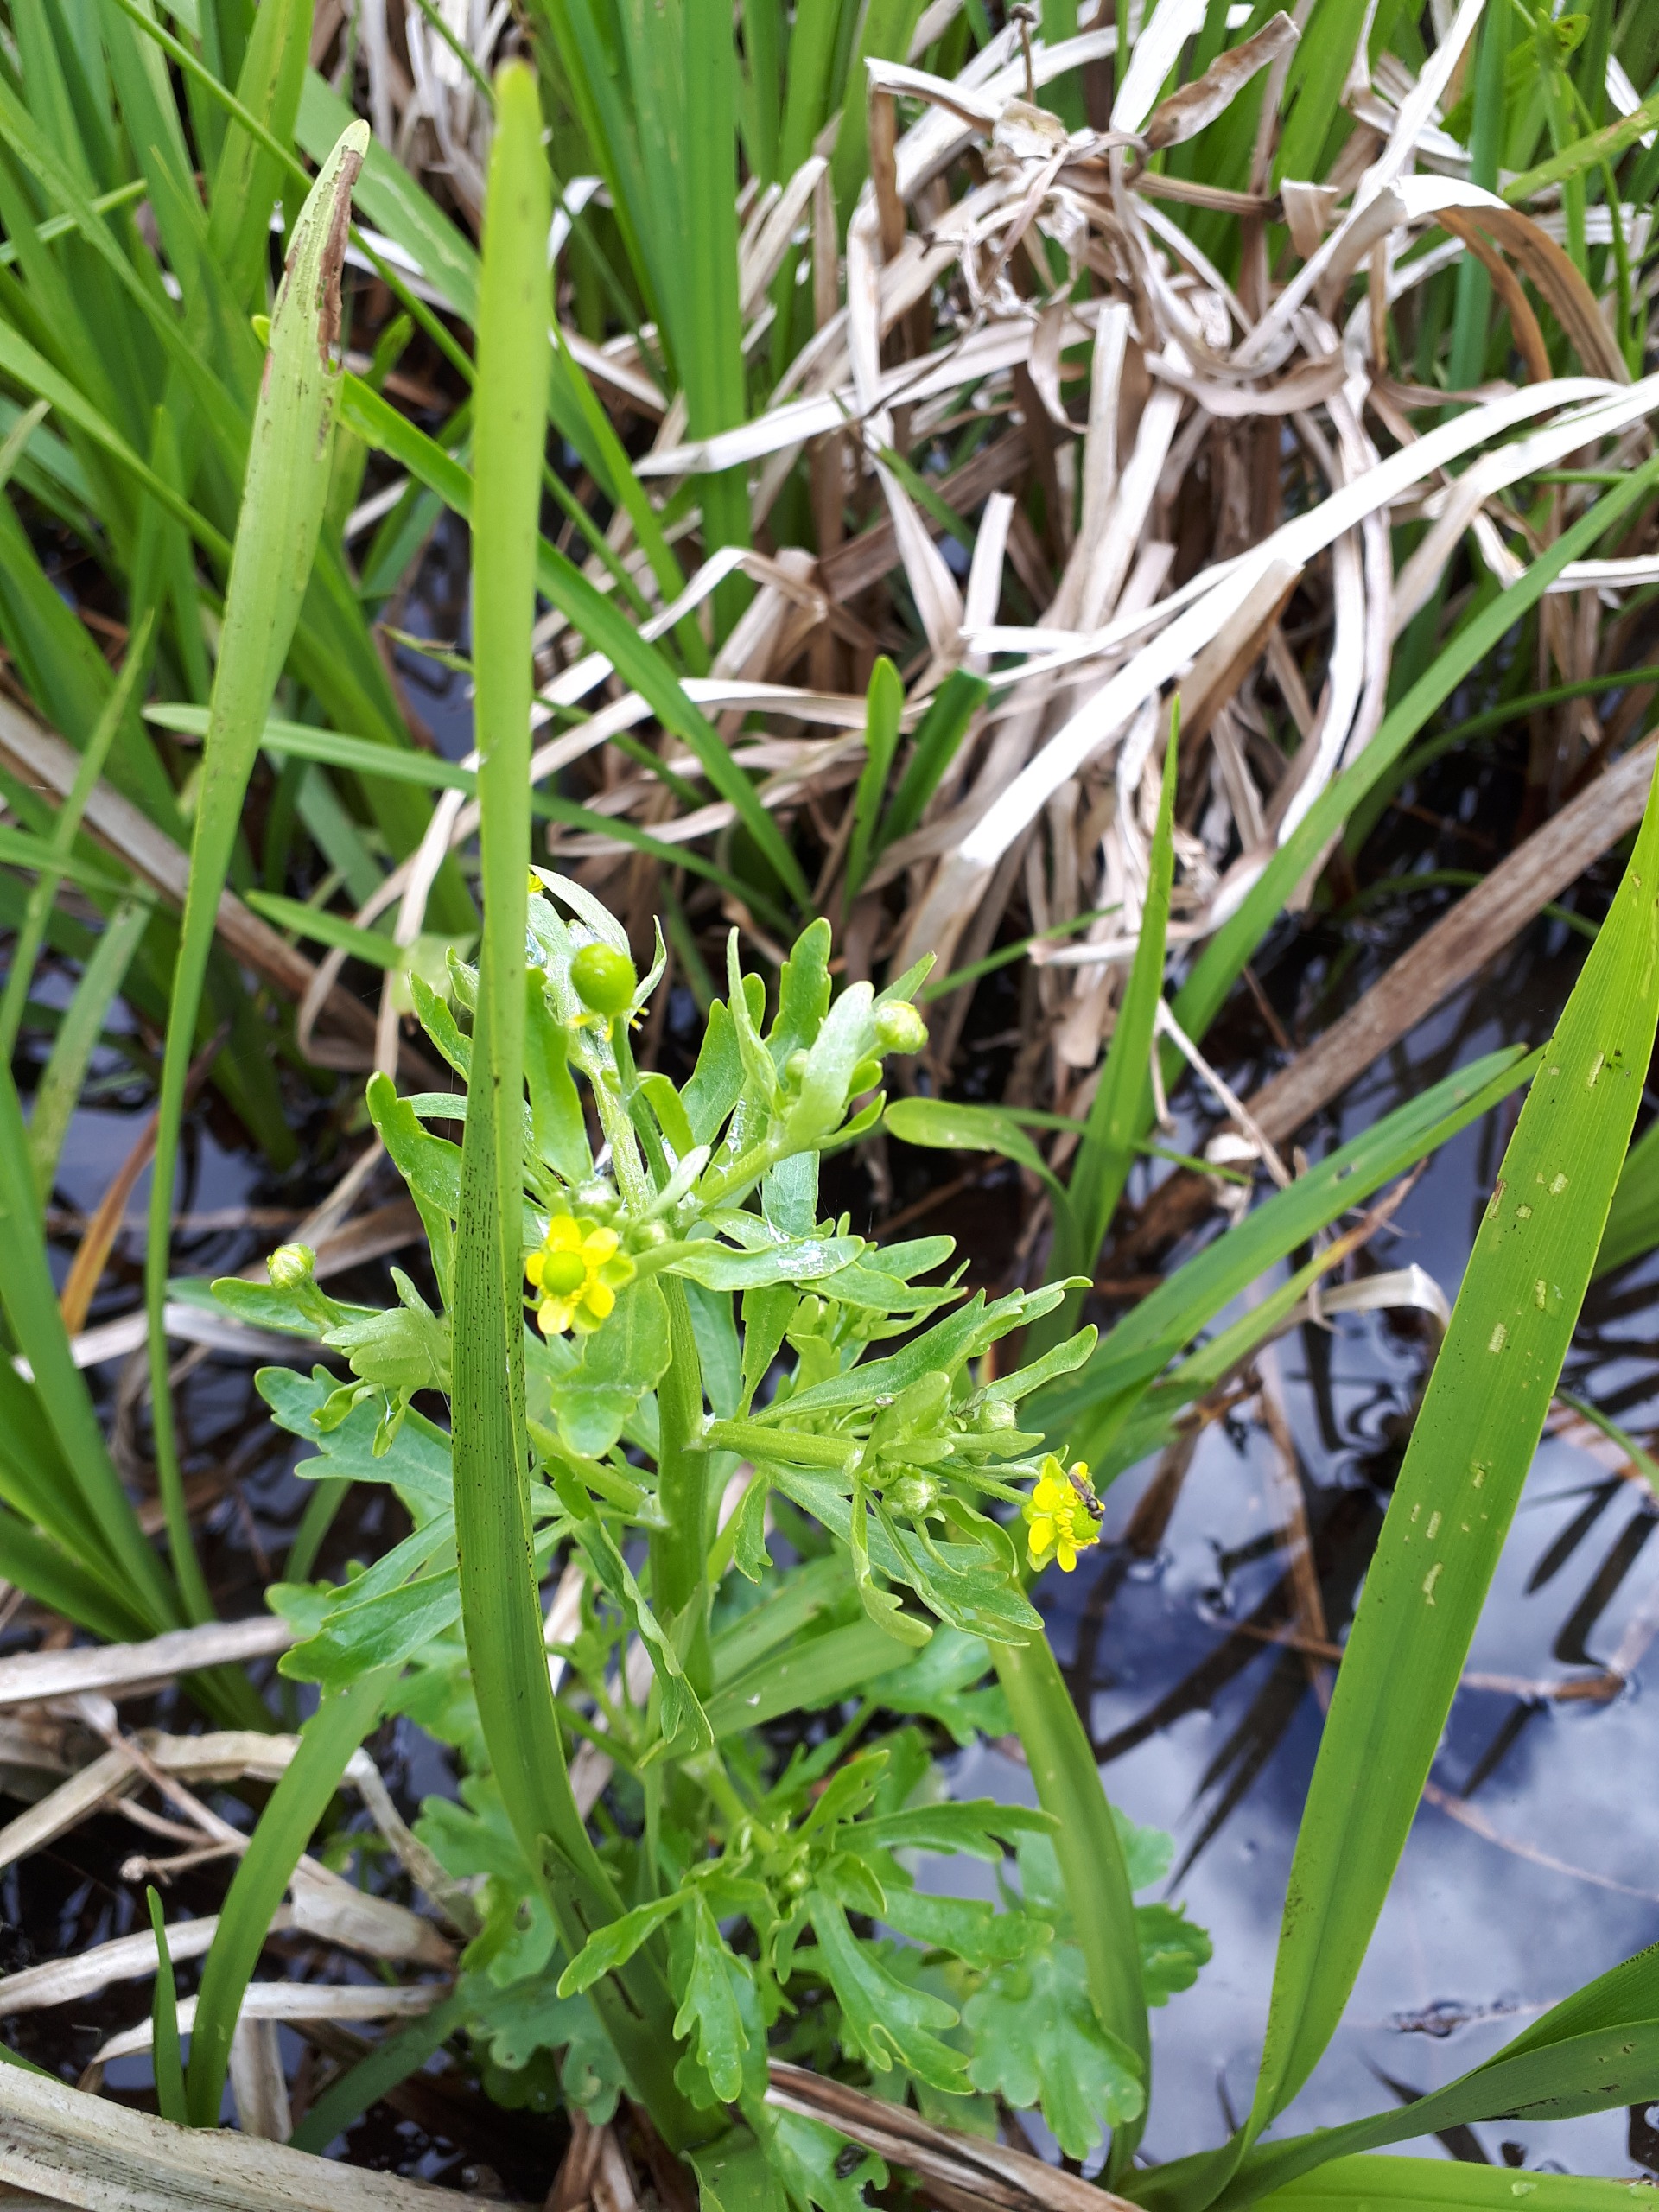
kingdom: Plantae
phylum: Tracheophyta
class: Magnoliopsida
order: Ranunculales
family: Ranunculaceae
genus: Ranunculus
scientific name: Ranunculus sceleratus
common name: Tigger-ranunkel
